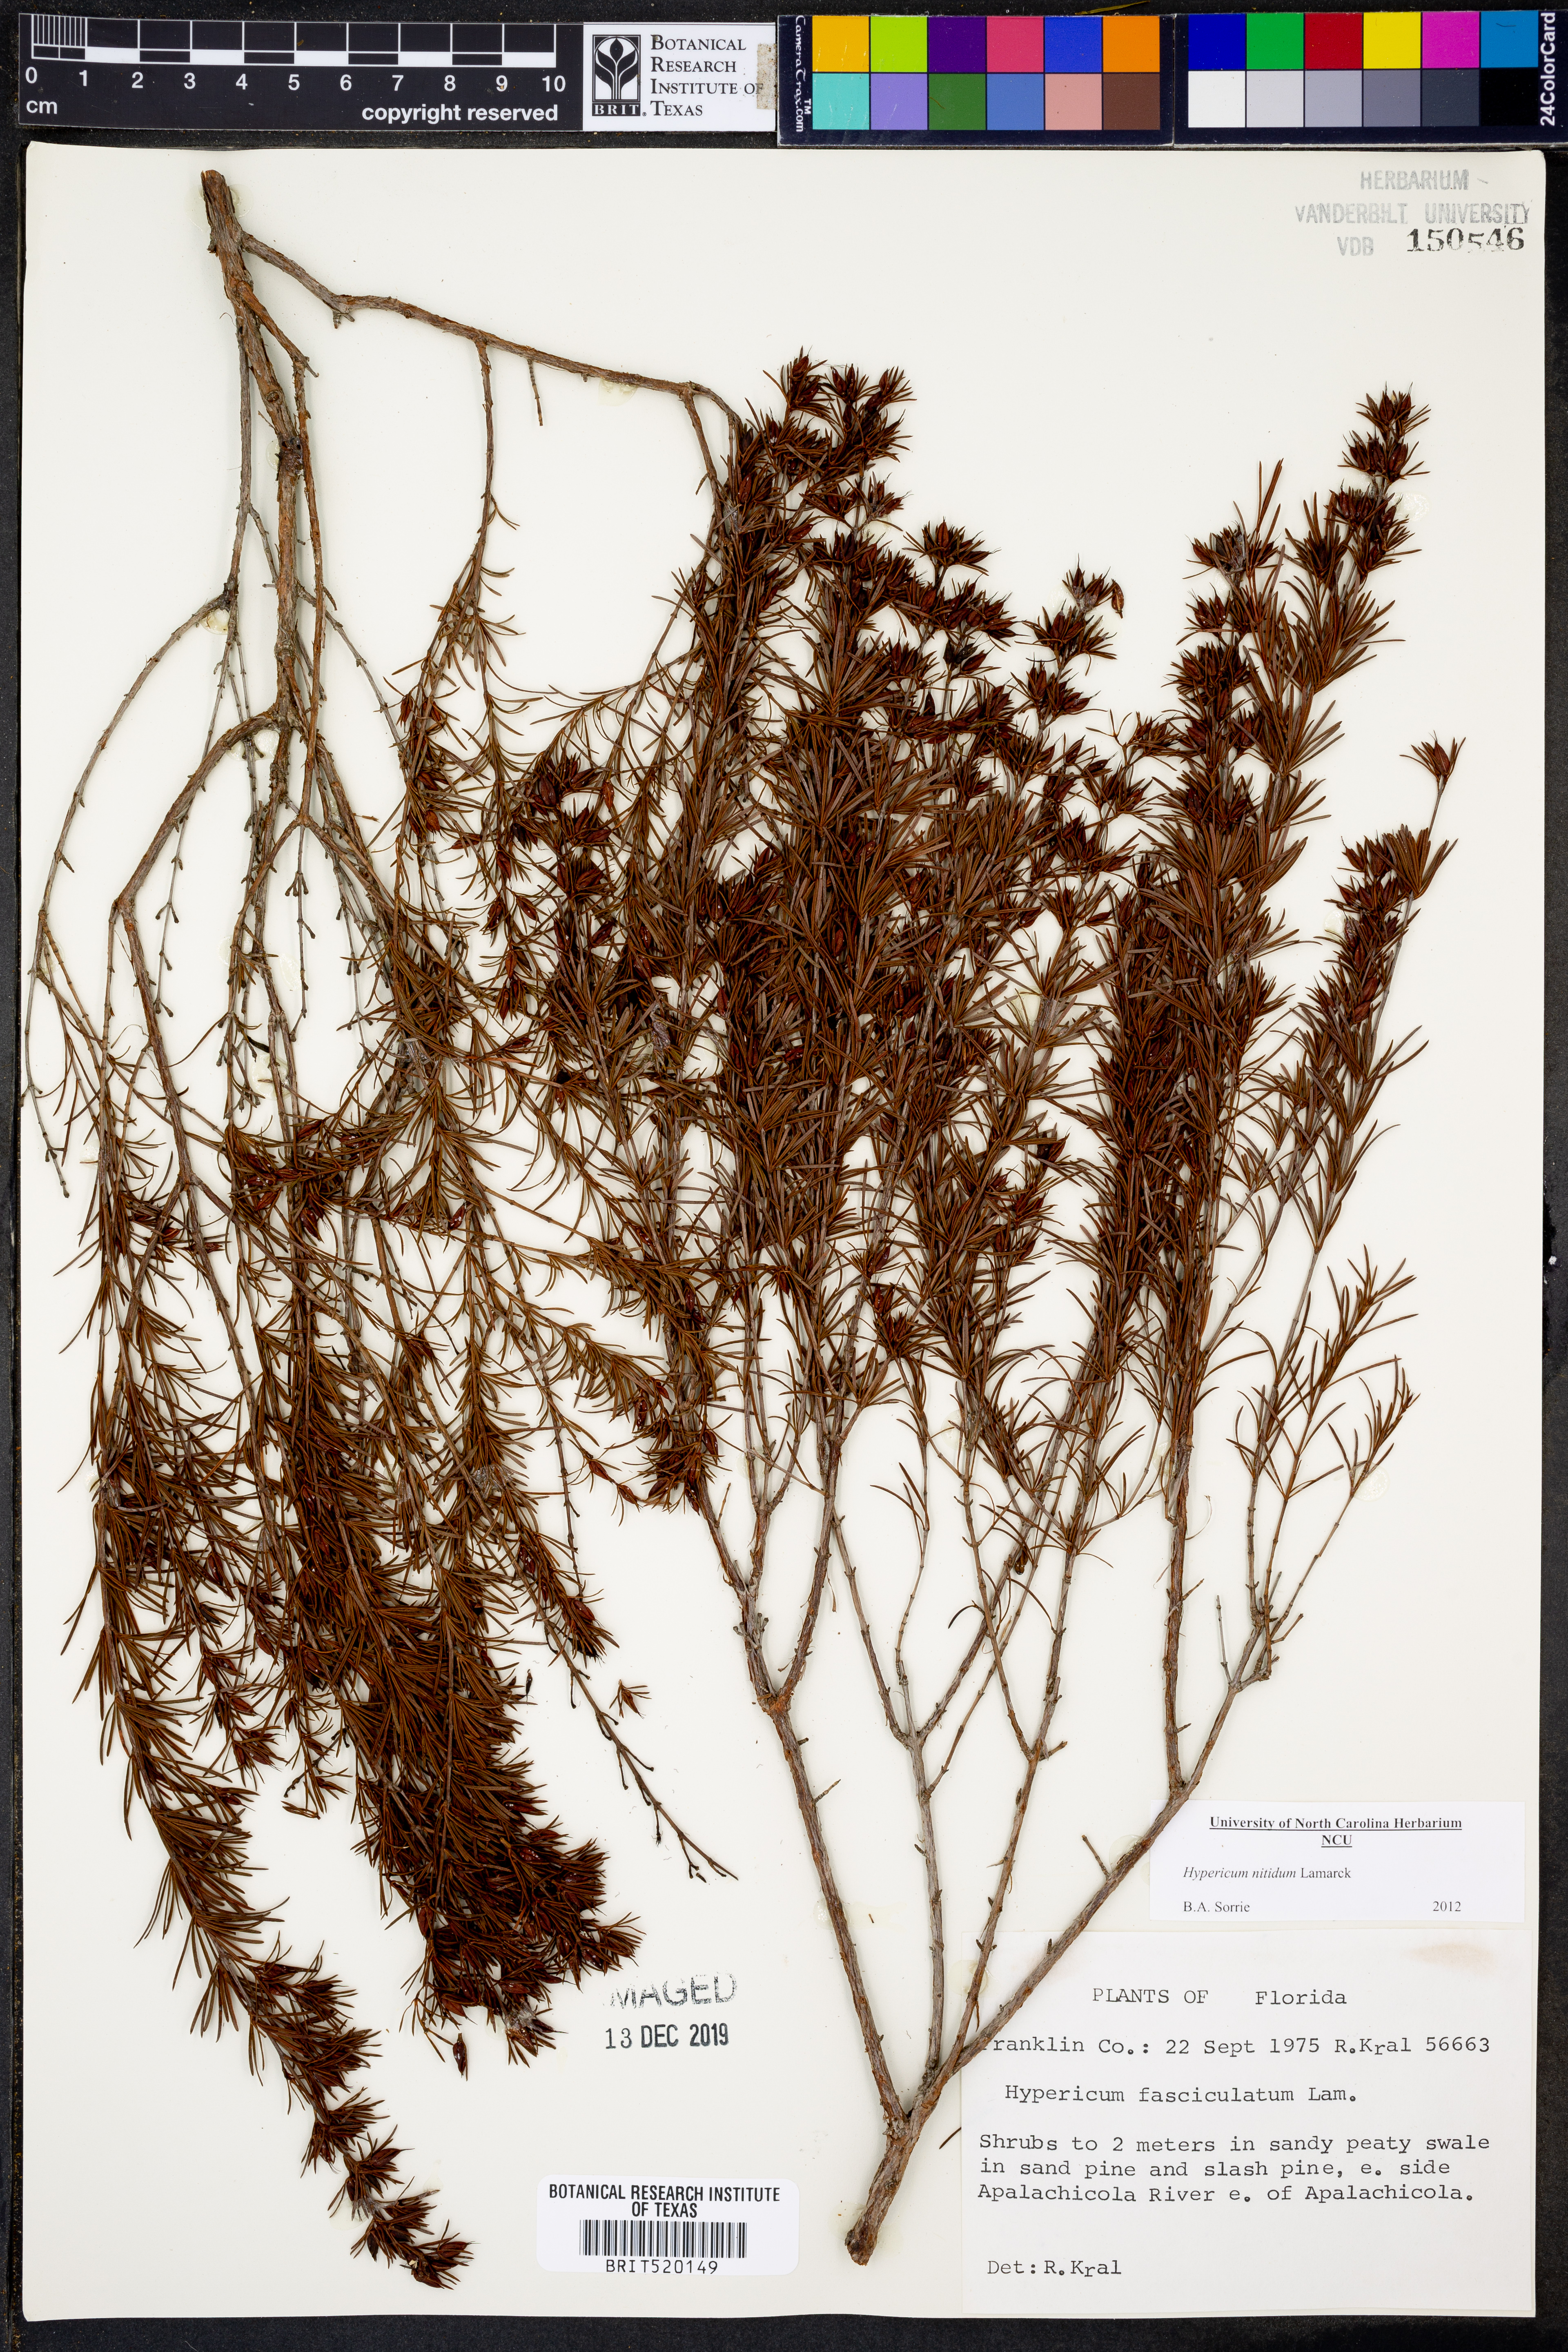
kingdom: Plantae
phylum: Tracheophyta
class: Magnoliopsida
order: Malpighiales
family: Hypericaceae
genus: Hypericum
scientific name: Hypericum nitidum
